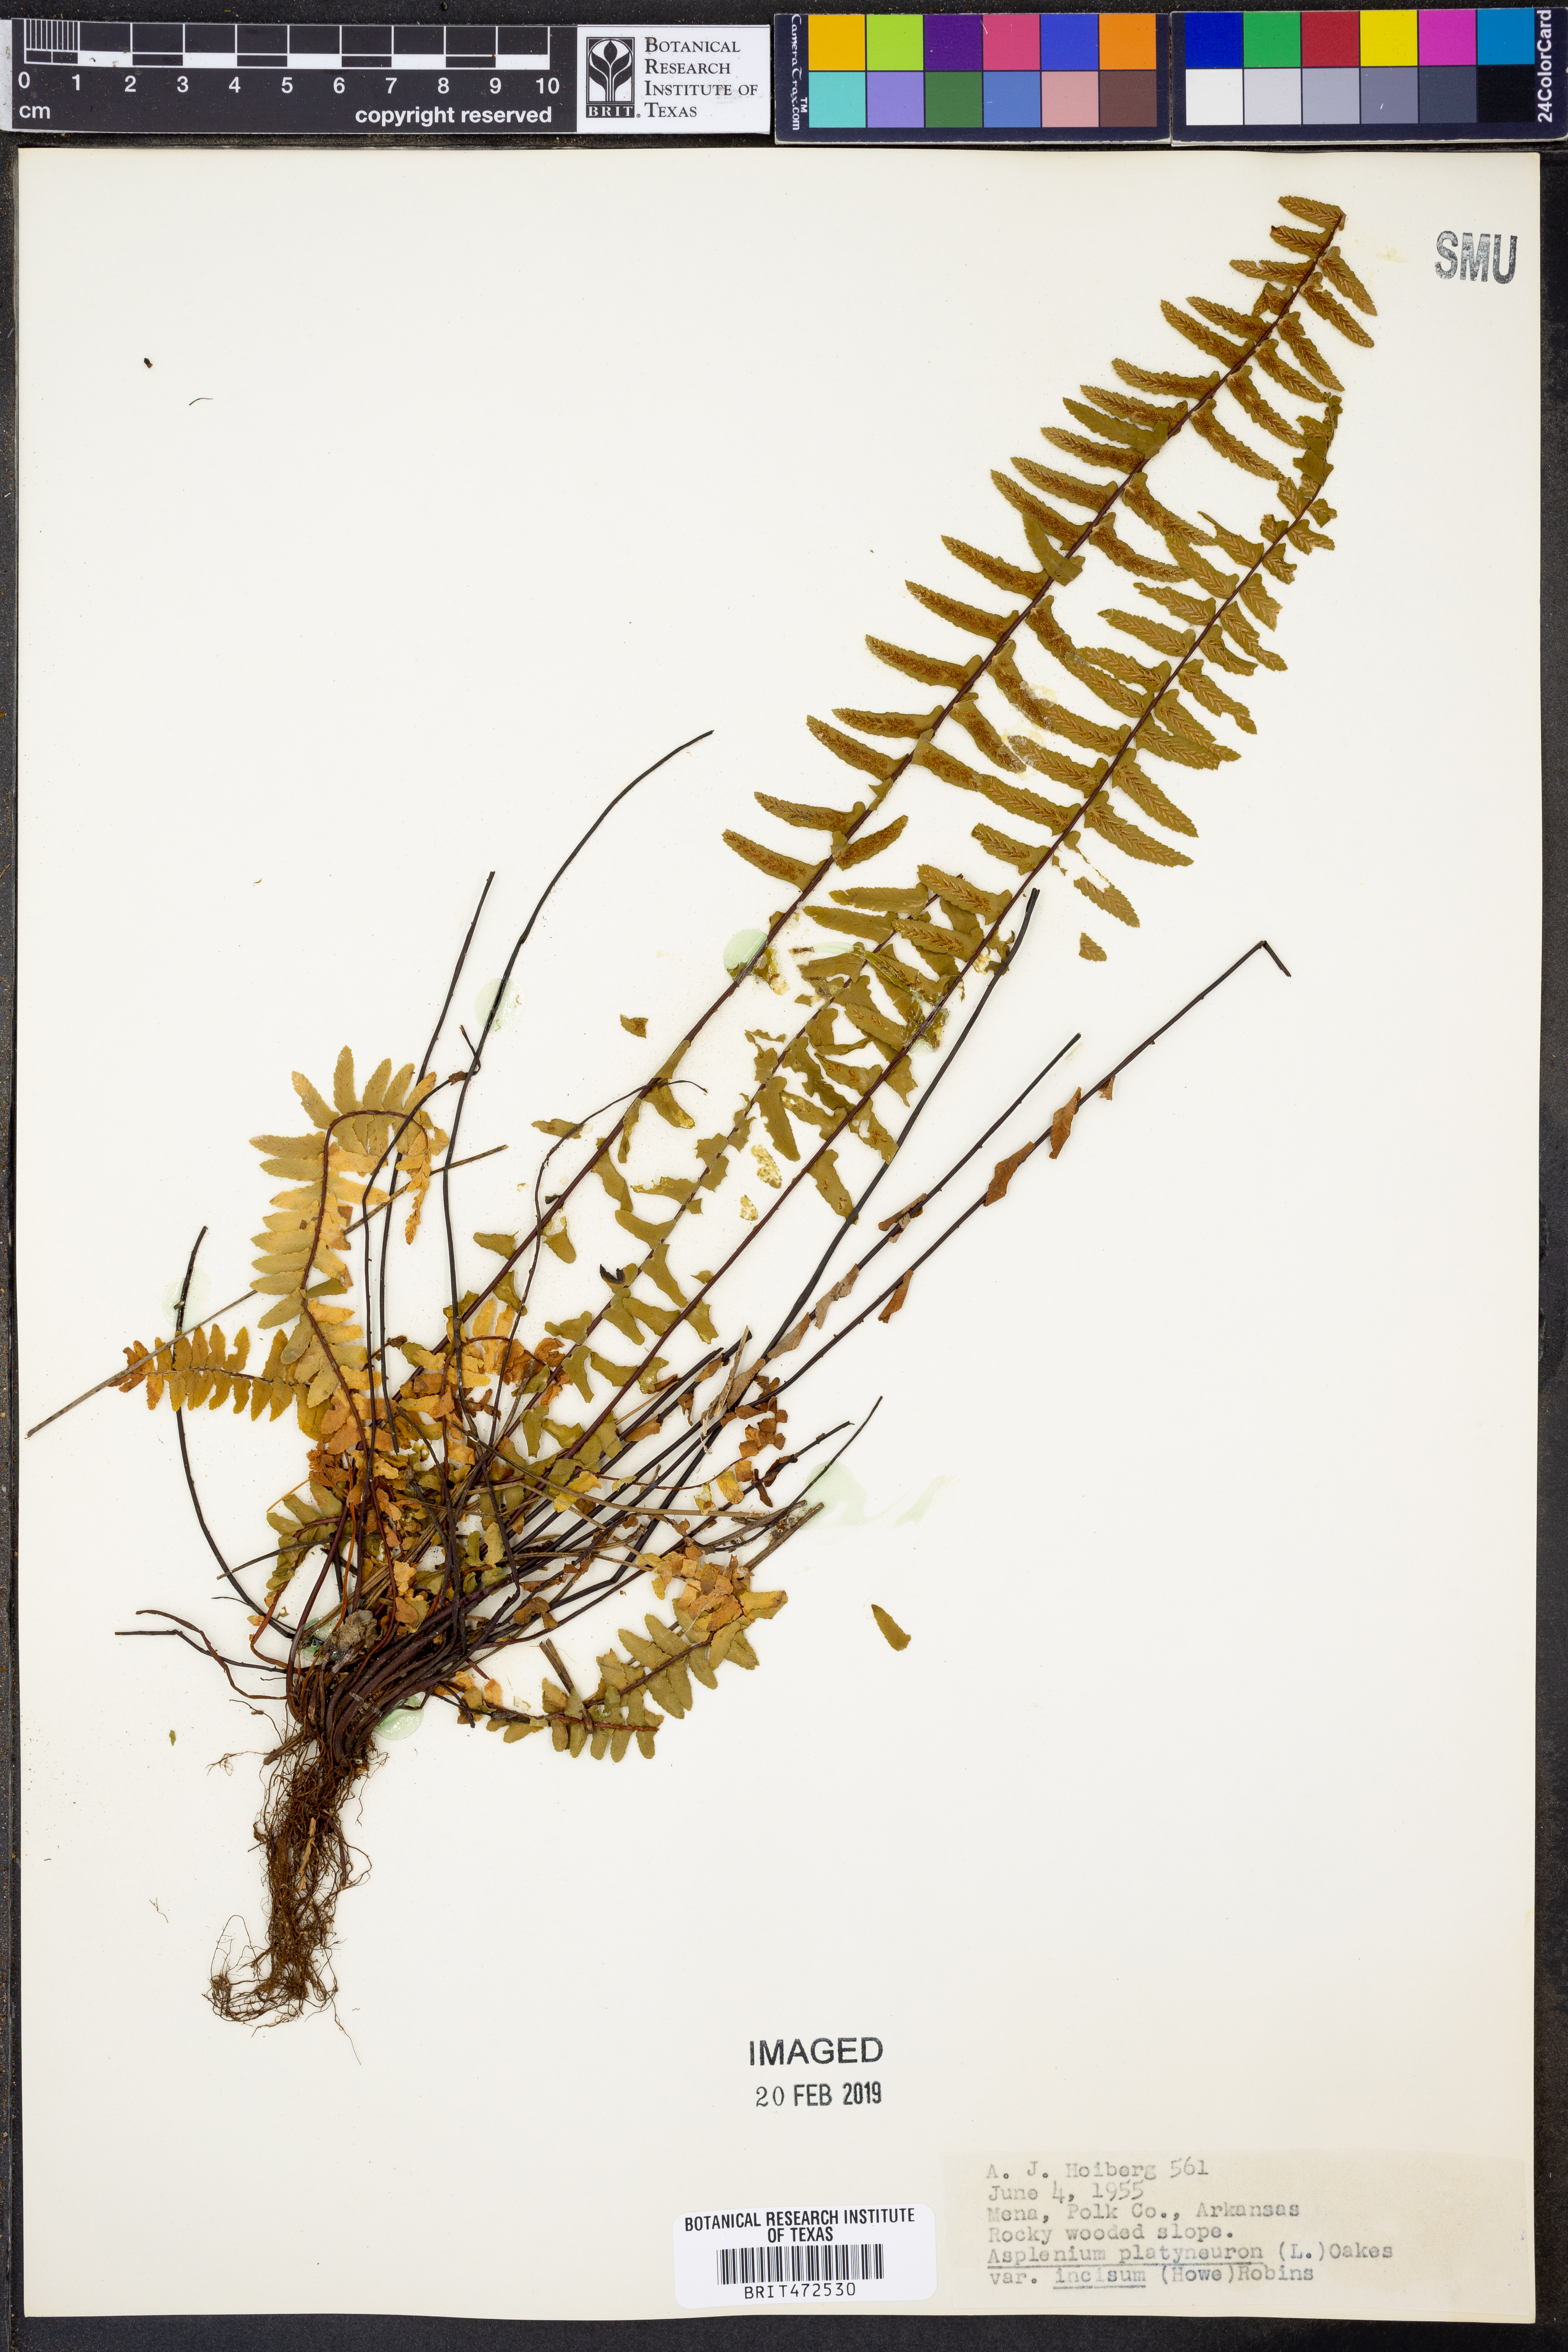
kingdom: Plantae
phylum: Tracheophyta
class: Polypodiopsida
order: Polypodiales
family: Aspleniaceae
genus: Asplenium
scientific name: Asplenium platyneuron
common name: Ebony spleenwort
